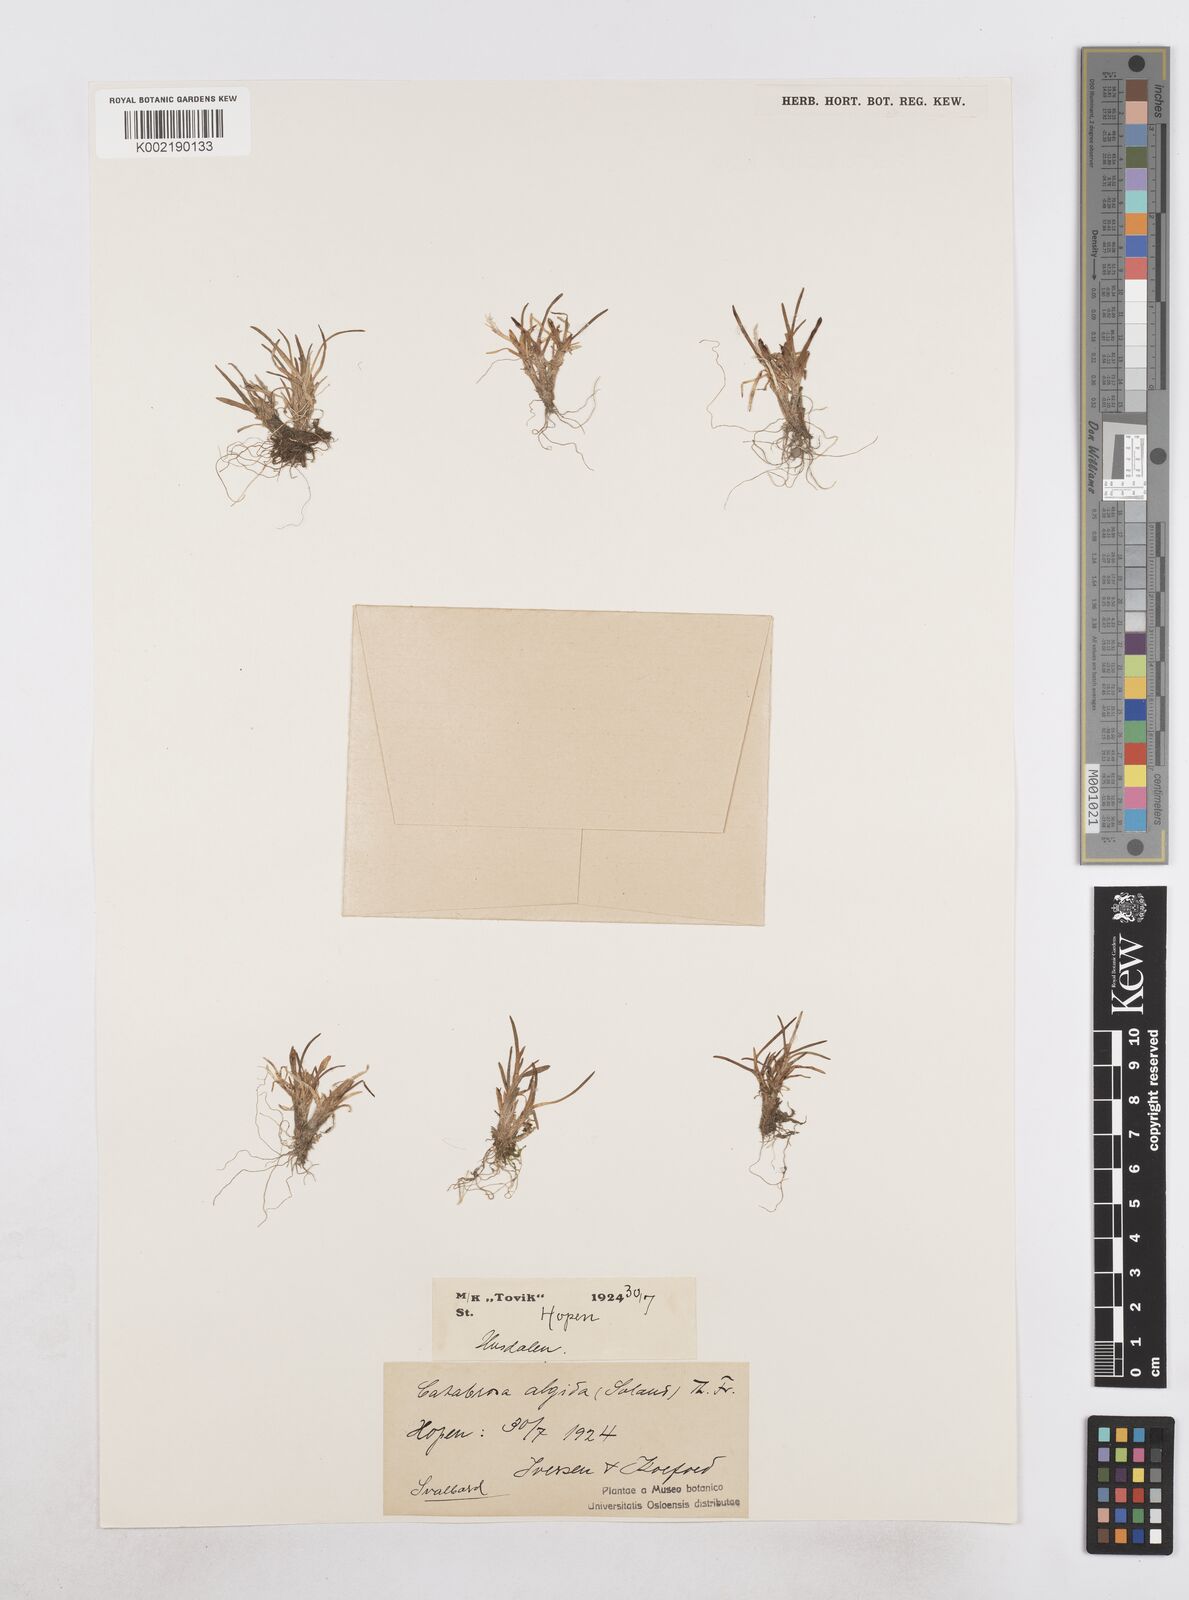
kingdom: Plantae
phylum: Tracheophyta
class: Liliopsida
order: Poales
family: Poaceae
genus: Phippsia
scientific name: Phippsia algida
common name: Ice grass
